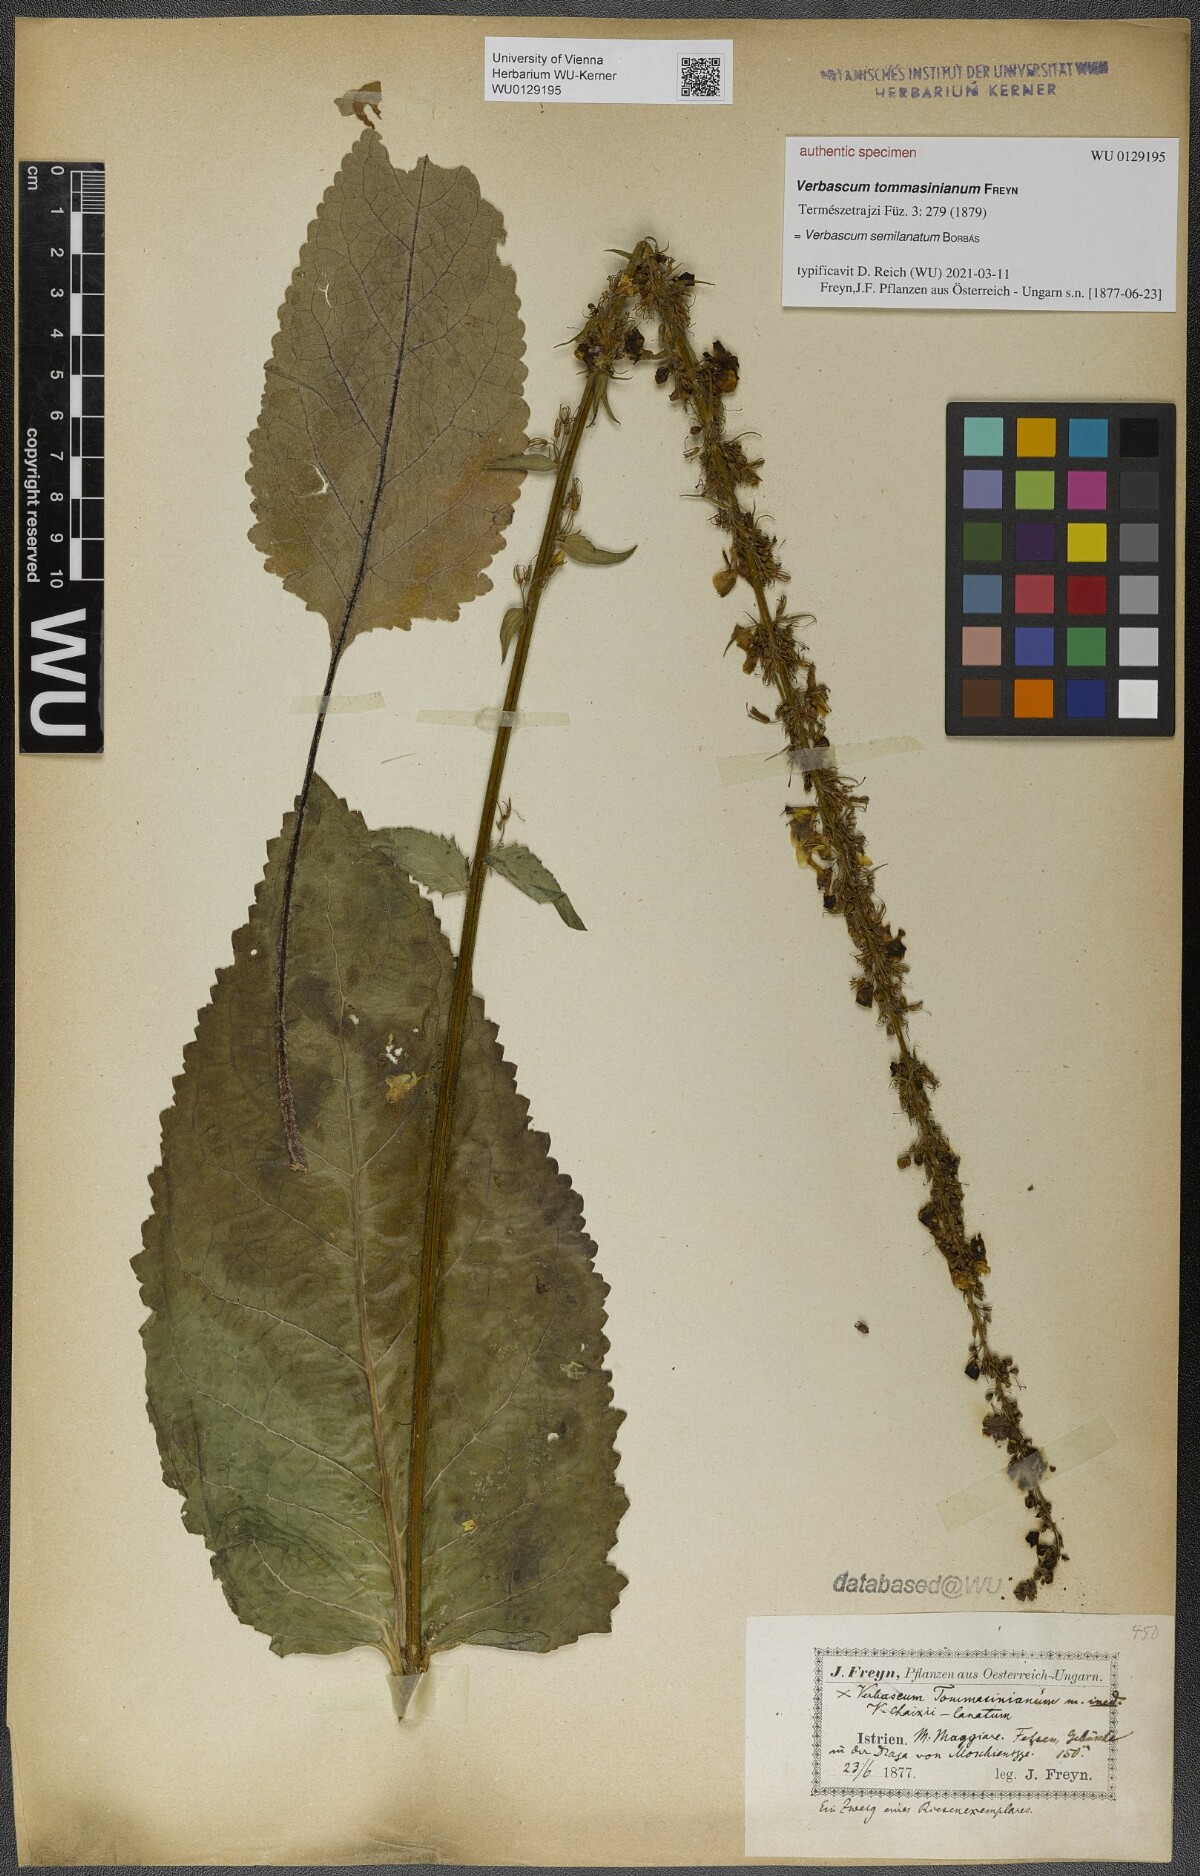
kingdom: Plantae
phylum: Tracheophyta
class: Magnoliopsida
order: Lamiales
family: Scrophulariaceae
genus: Verbascum
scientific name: Verbascum semilanatum
